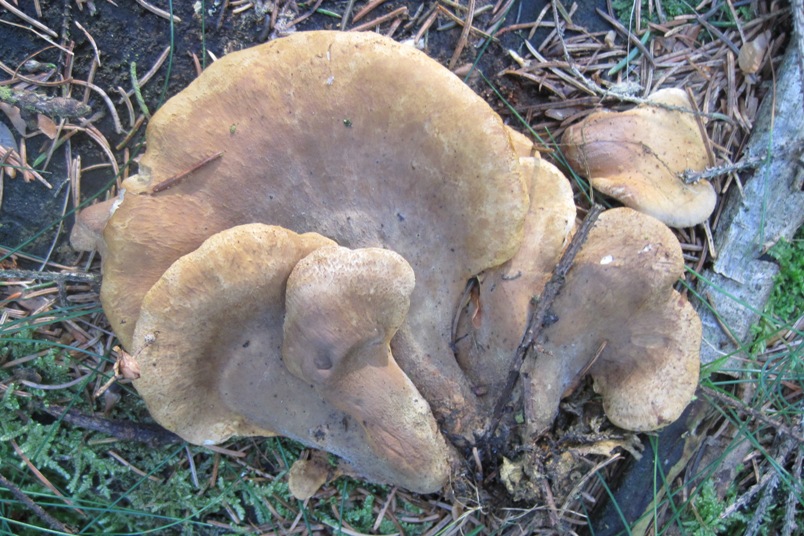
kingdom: Fungi
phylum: Basidiomycota
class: Agaricomycetes
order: Boletales
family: Tapinellaceae
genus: Tapinella
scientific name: Tapinella panuoides
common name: tømmer-viftesvamp
